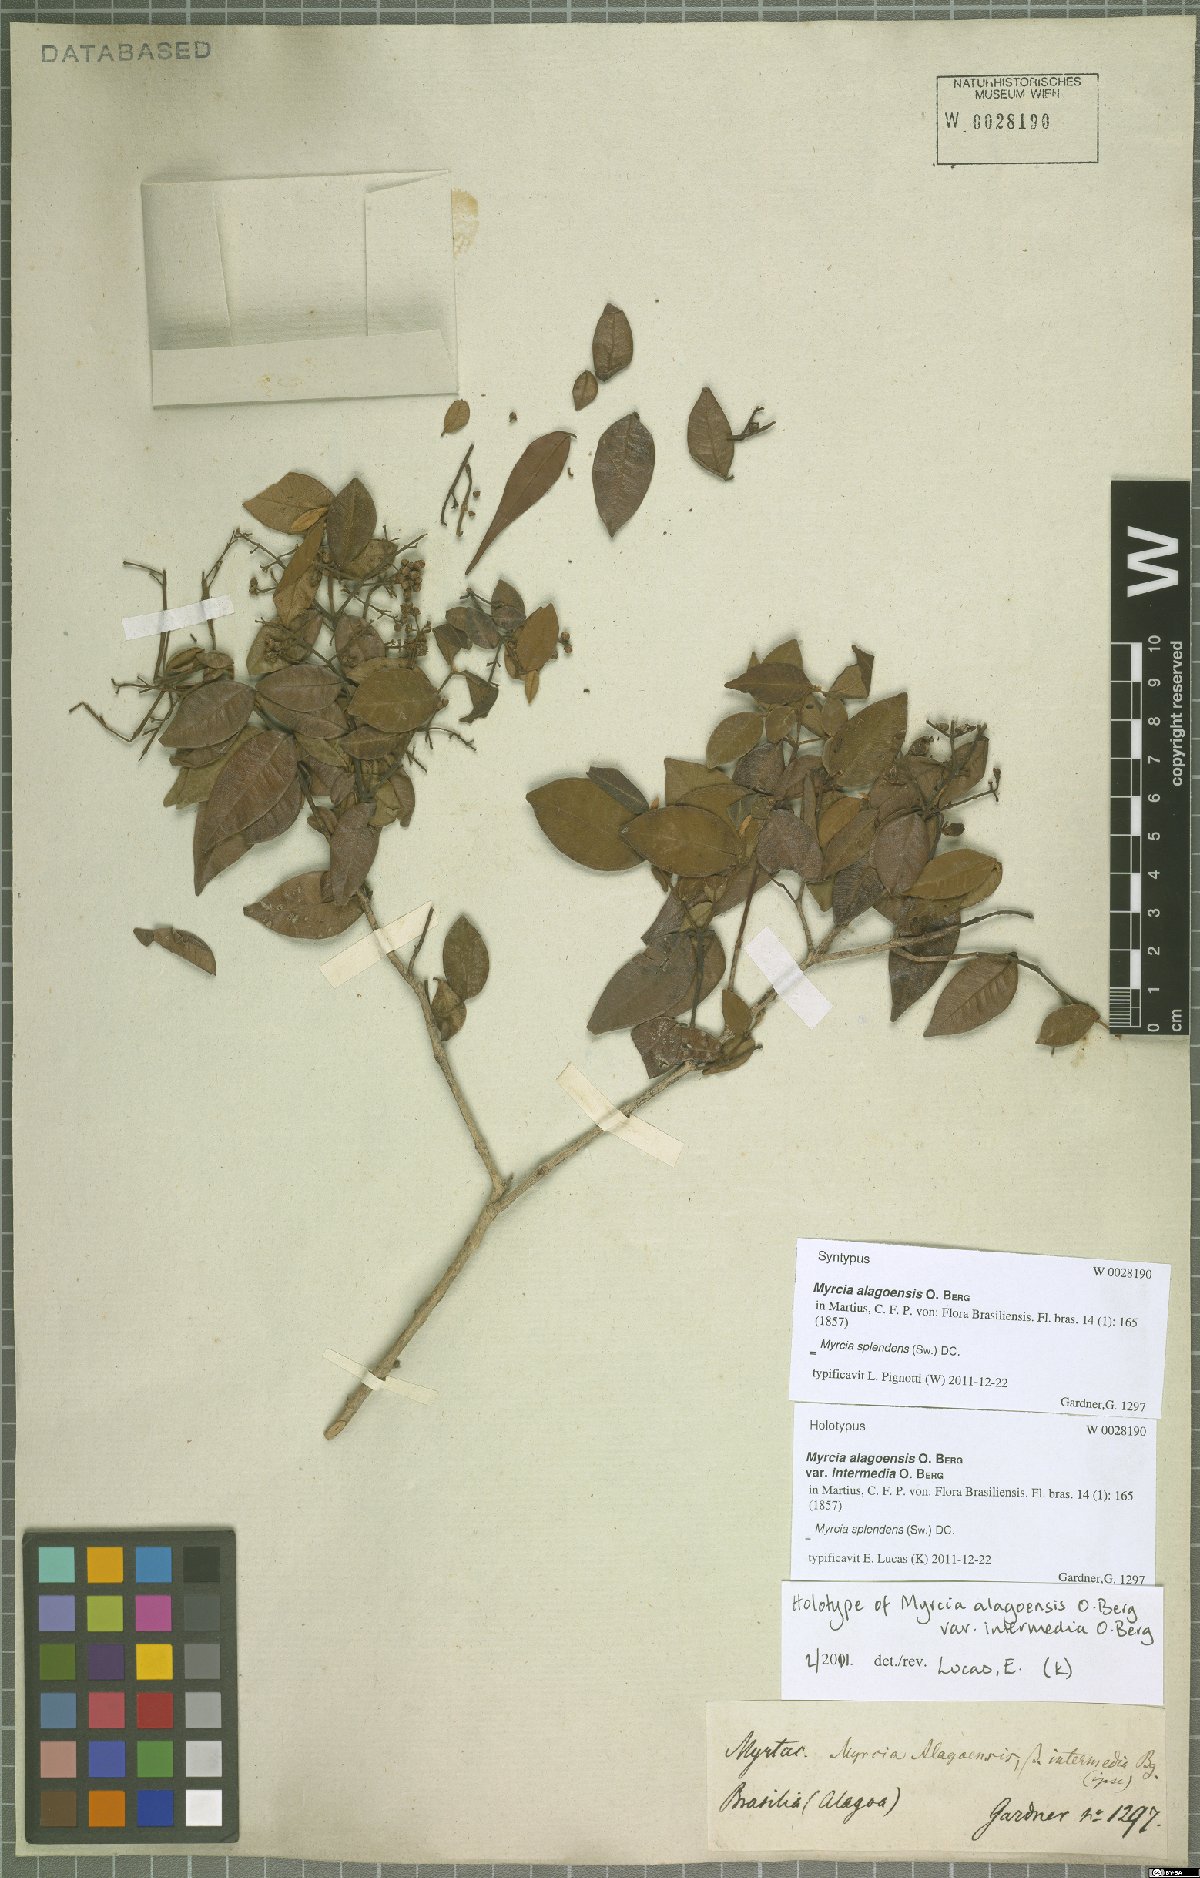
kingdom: Plantae
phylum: Tracheophyta
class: Magnoliopsida
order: Myrtales
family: Myrtaceae
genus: Myrcia
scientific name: Myrcia splendens
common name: Surinam cherry
